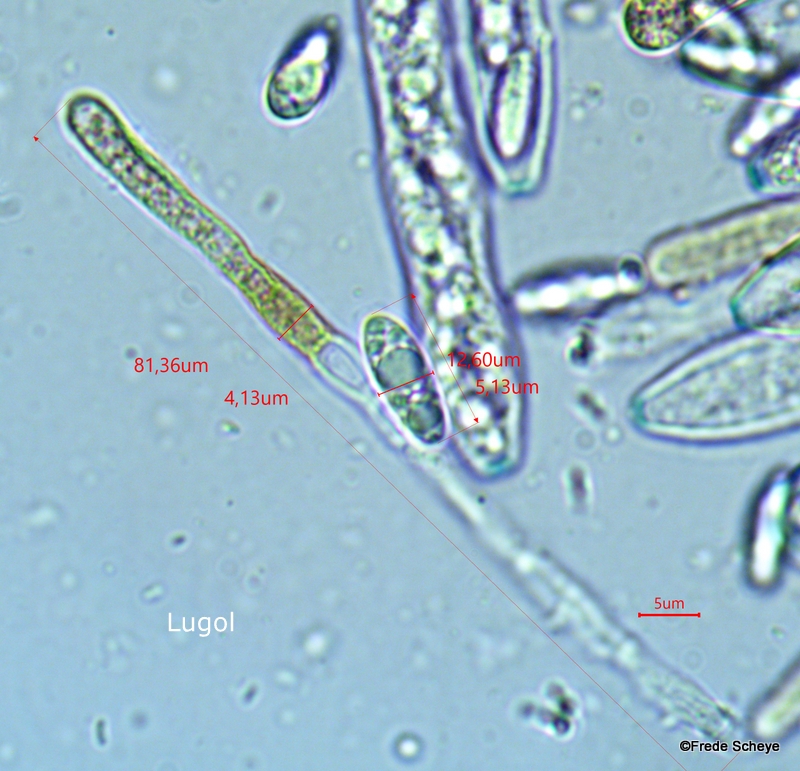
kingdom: Fungi
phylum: Ascomycota
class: Leotiomycetes
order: Helotiales
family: Cenangiaceae
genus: Trochila
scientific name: Trochila ilicina
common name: kristtorn-lågskive
